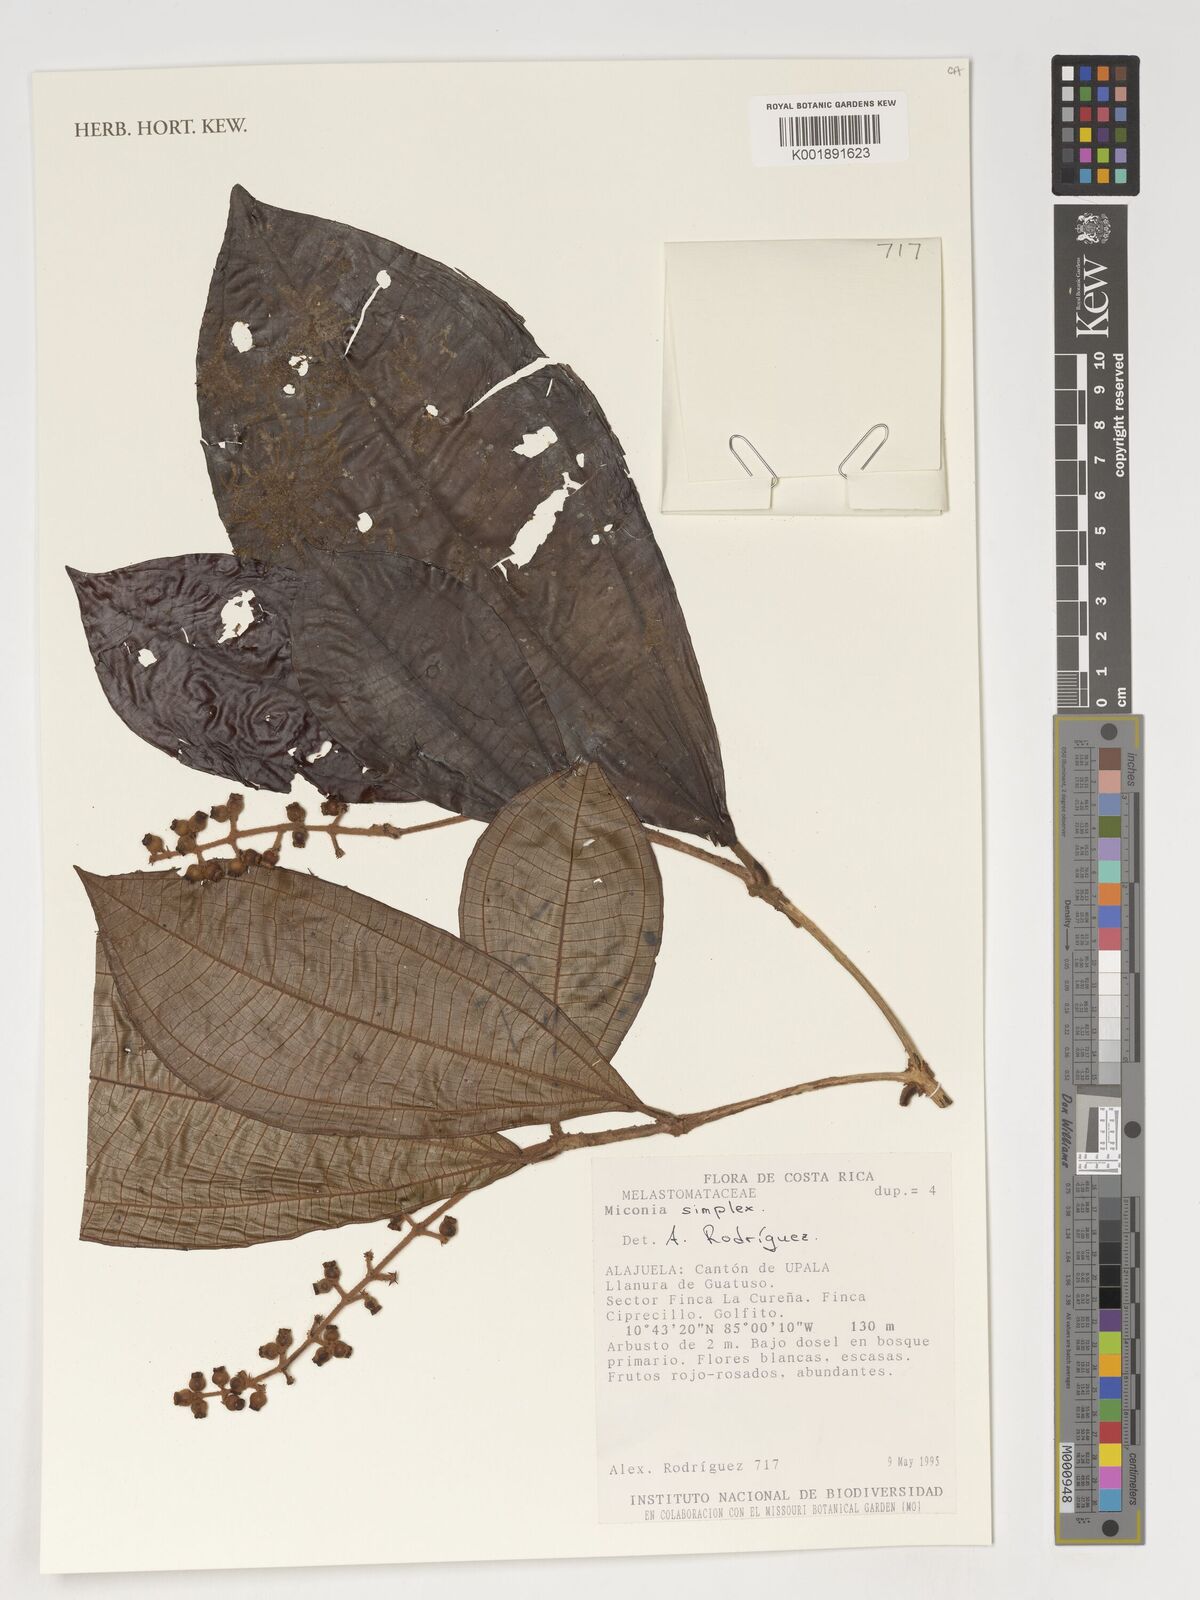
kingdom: Plantae
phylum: Tracheophyta
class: Magnoliopsida
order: Myrtales
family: Melastomataceae
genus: Miconia
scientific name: Miconia simplex
